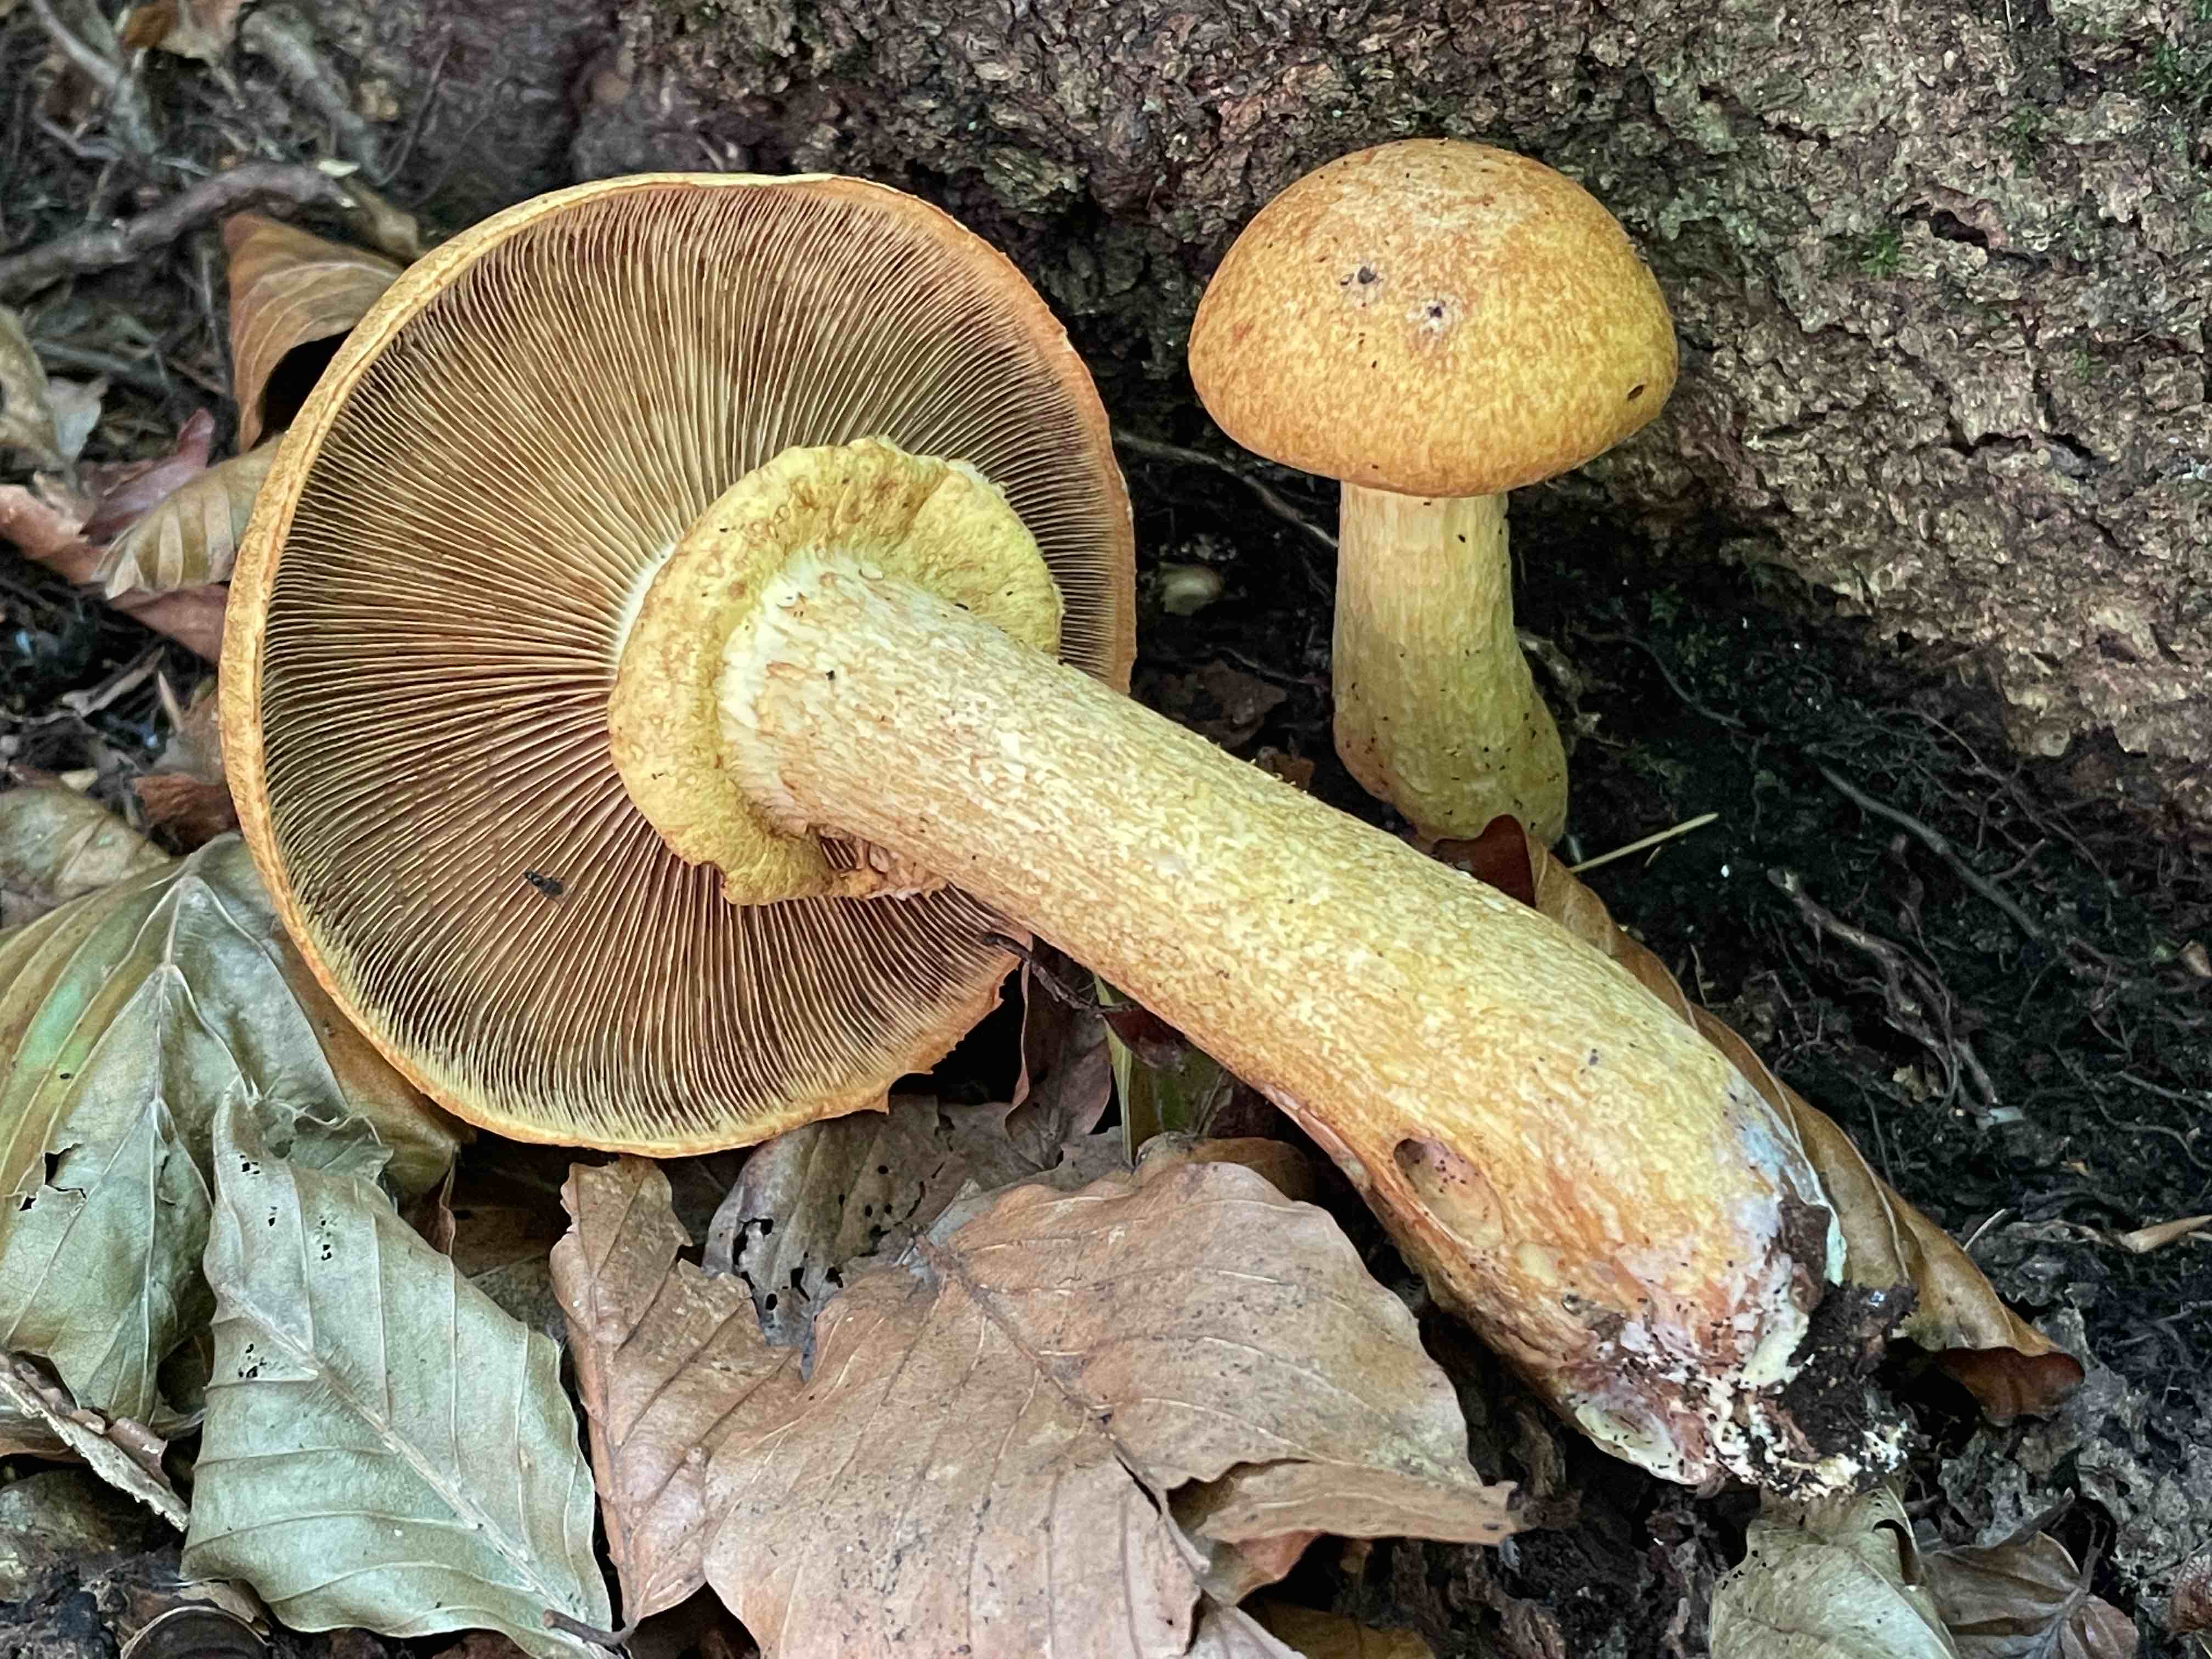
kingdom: Fungi
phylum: Basidiomycota
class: Agaricomycetes
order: Agaricales
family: Hymenogastraceae
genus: Gymnopilus
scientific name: Gymnopilus spectabilis
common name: fibret flammehat
